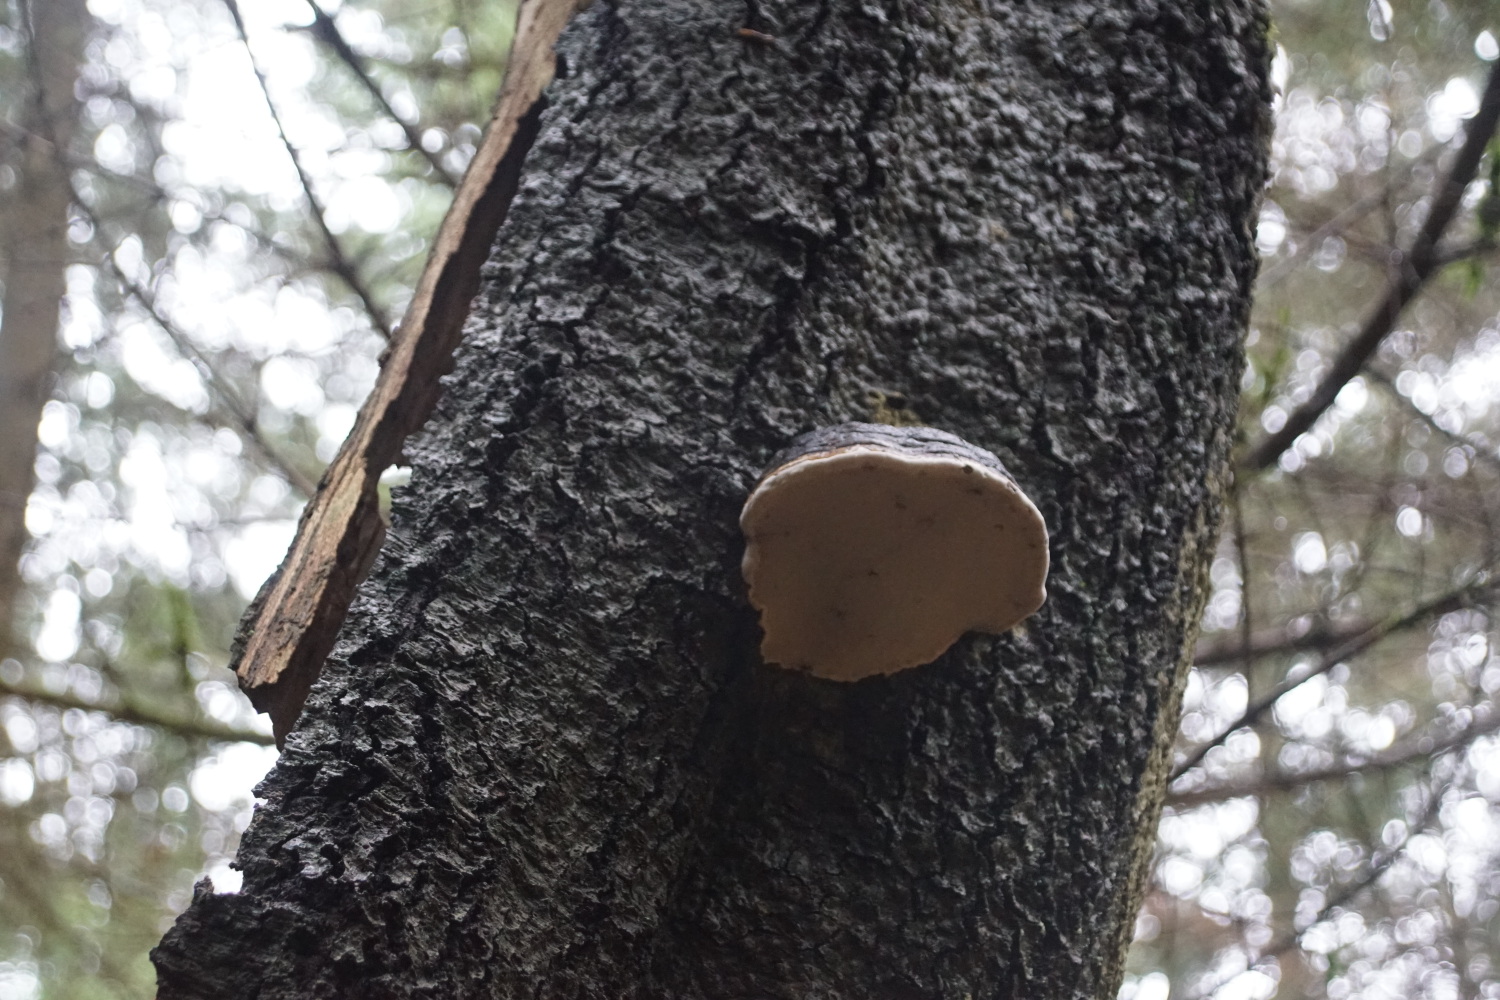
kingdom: Fungi
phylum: Basidiomycota
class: Agaricomycetes
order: Polyporales
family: Polyporaceae
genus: Fomes
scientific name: Fomes fomentarius
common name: tøndersvamp
